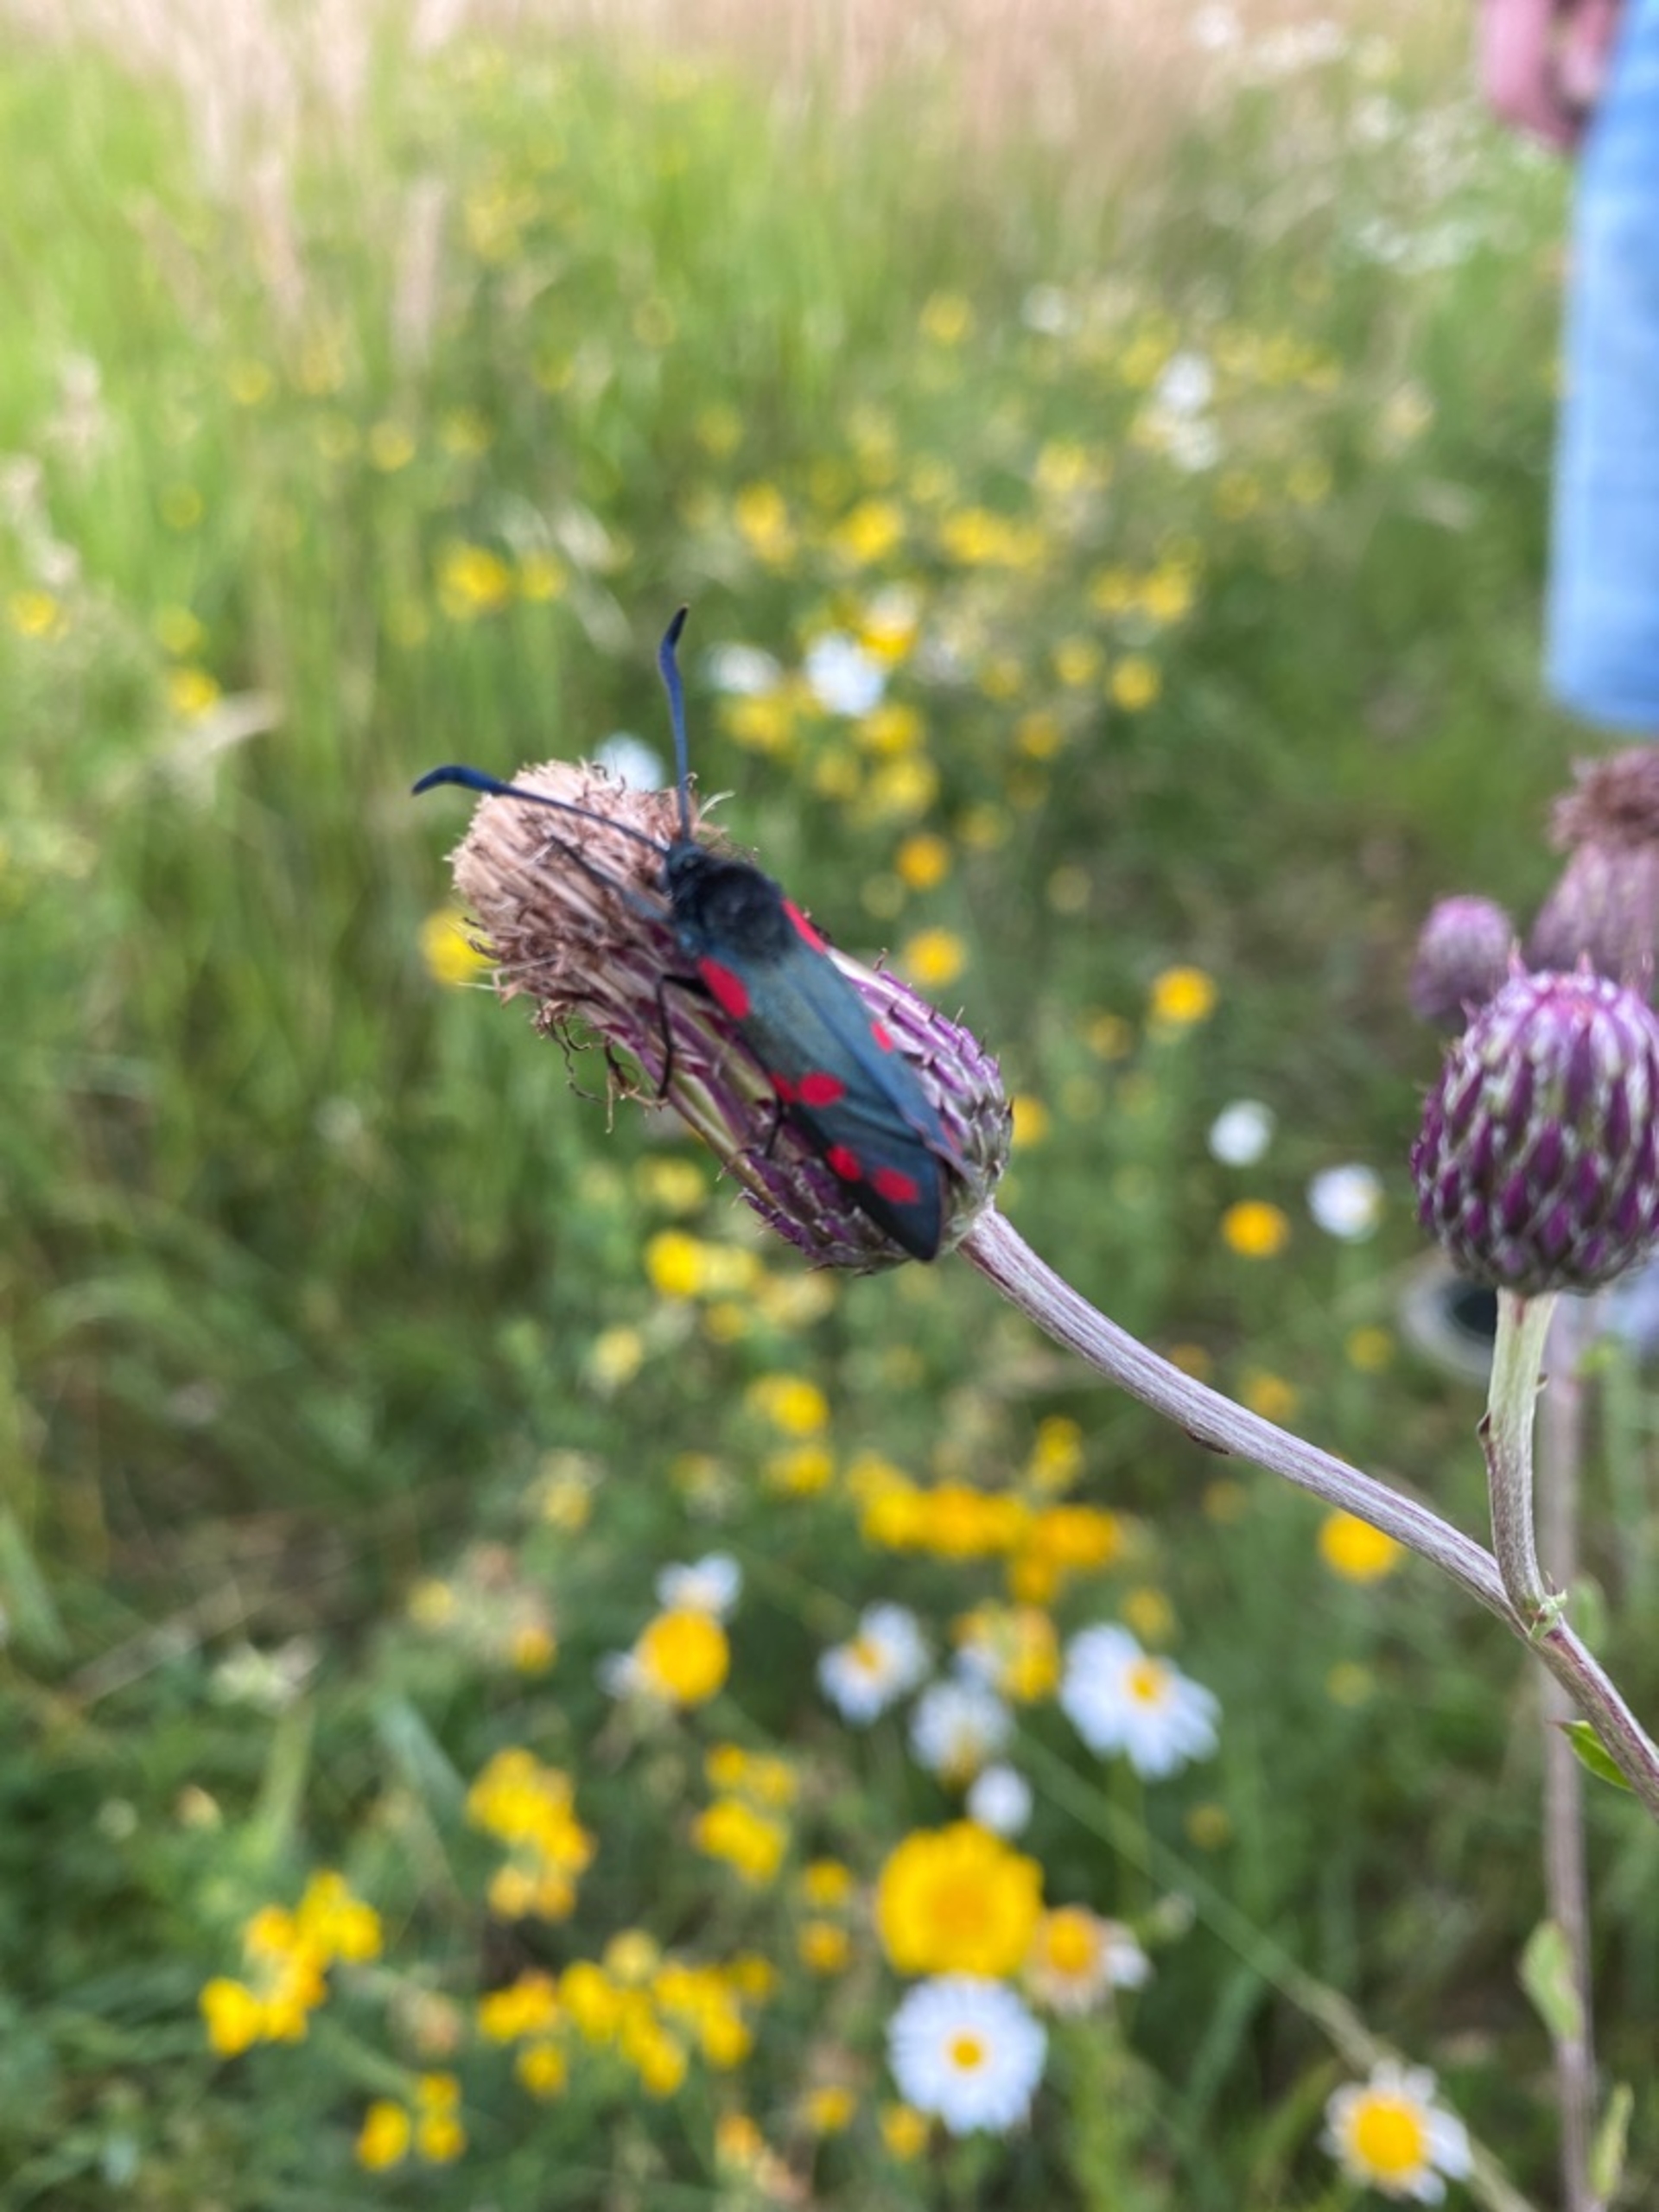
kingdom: Animalia
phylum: Arthropoda
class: Insecta
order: Lepidoptera
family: Zygaenidae
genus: Zygaena
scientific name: Zygaena filipendulae
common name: Seksplettet køllesværmer
